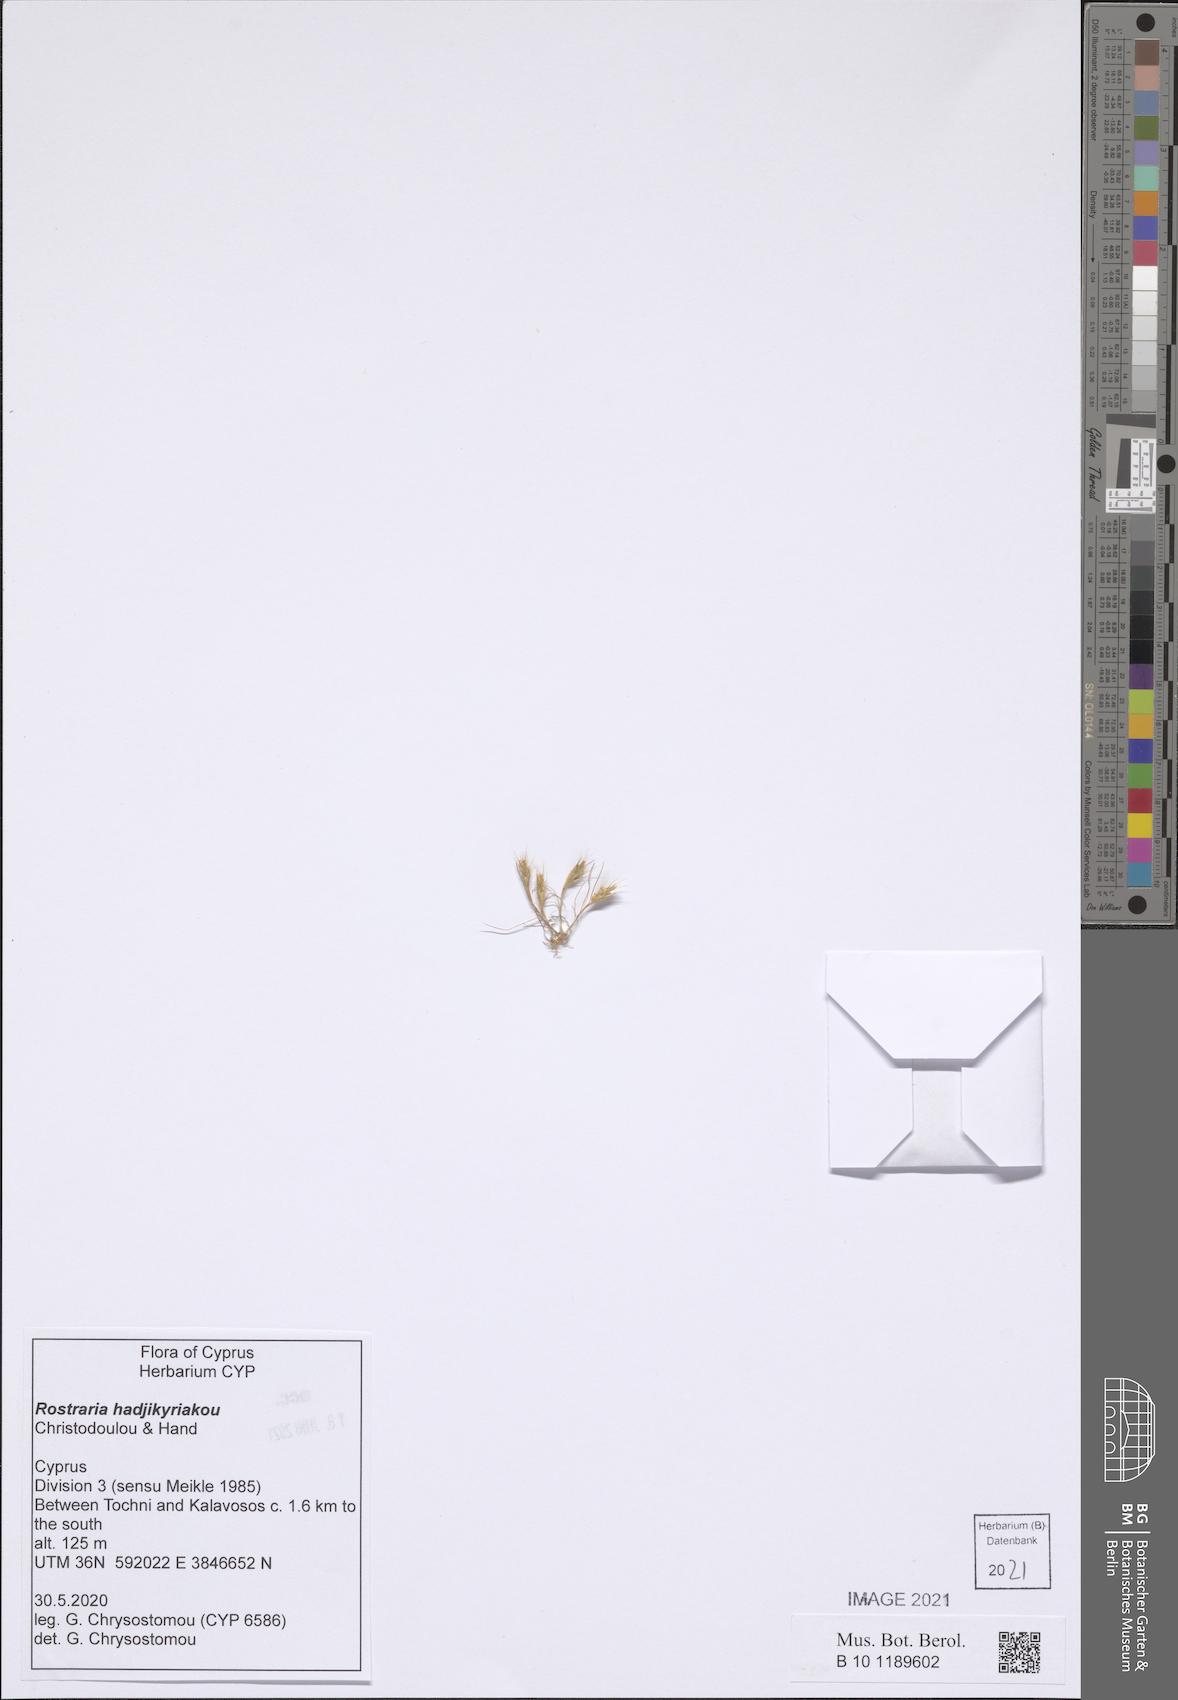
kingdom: Plantae
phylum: Tracheophyta
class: Liliopsida
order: Poales
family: Poaceae
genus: Rostraria
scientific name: Rostraria
